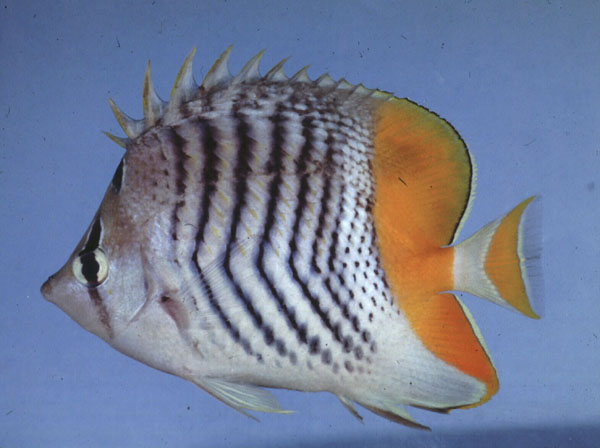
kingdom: Animalia
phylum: Chordata
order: Perciformes
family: Chaetodontidae
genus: Chaetodon
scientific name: Chaetodon madagaskariensis
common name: Madagascar butterflyfish
